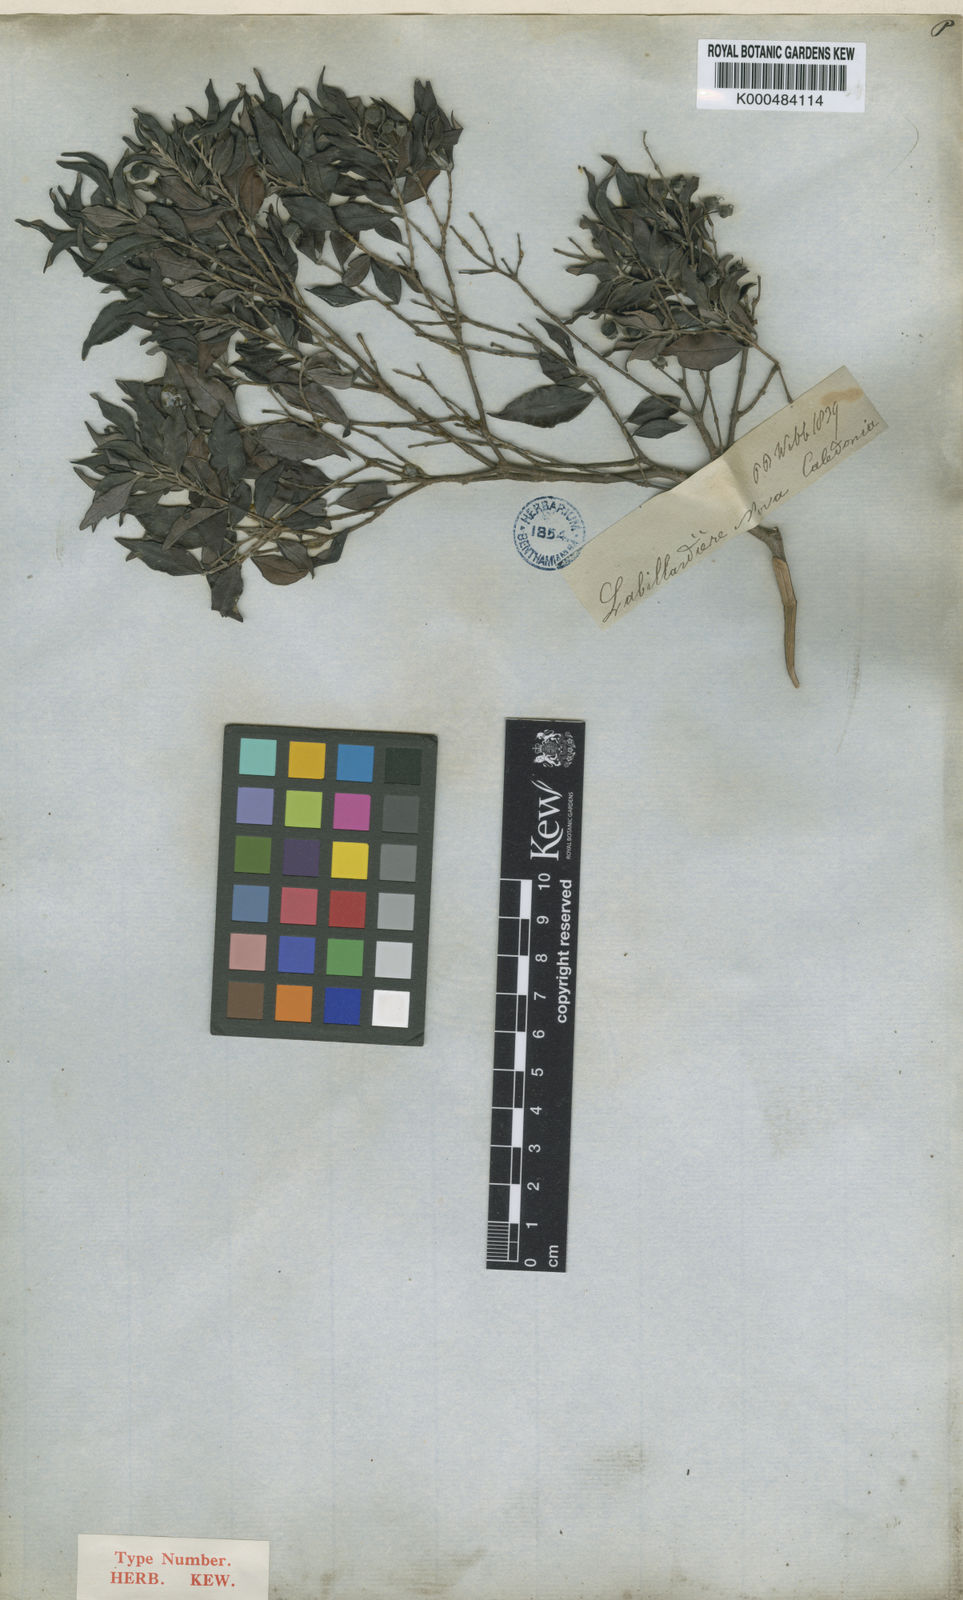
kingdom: Plantae
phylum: Tracheophyta
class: Magnoliopsida
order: Myrtales
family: Myrtaceae
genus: Uromyrtus
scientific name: Uromyrtus billardierei
